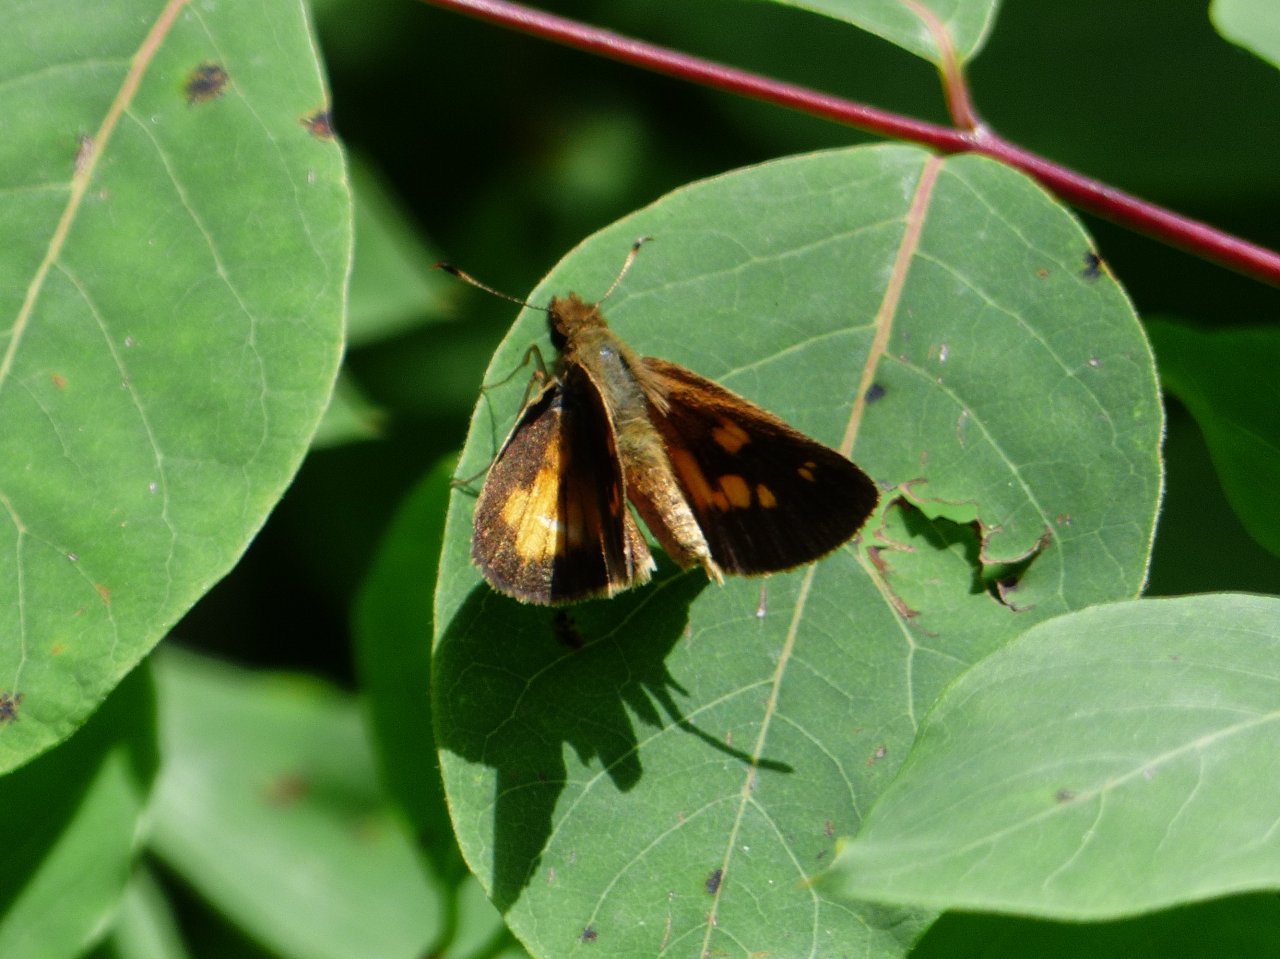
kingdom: Animalia
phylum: Arthropoda
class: Insecta
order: Lepidoptera
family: Hesperiidae
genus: Poanes
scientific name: Poanes viator
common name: Broad-winged Skipper
